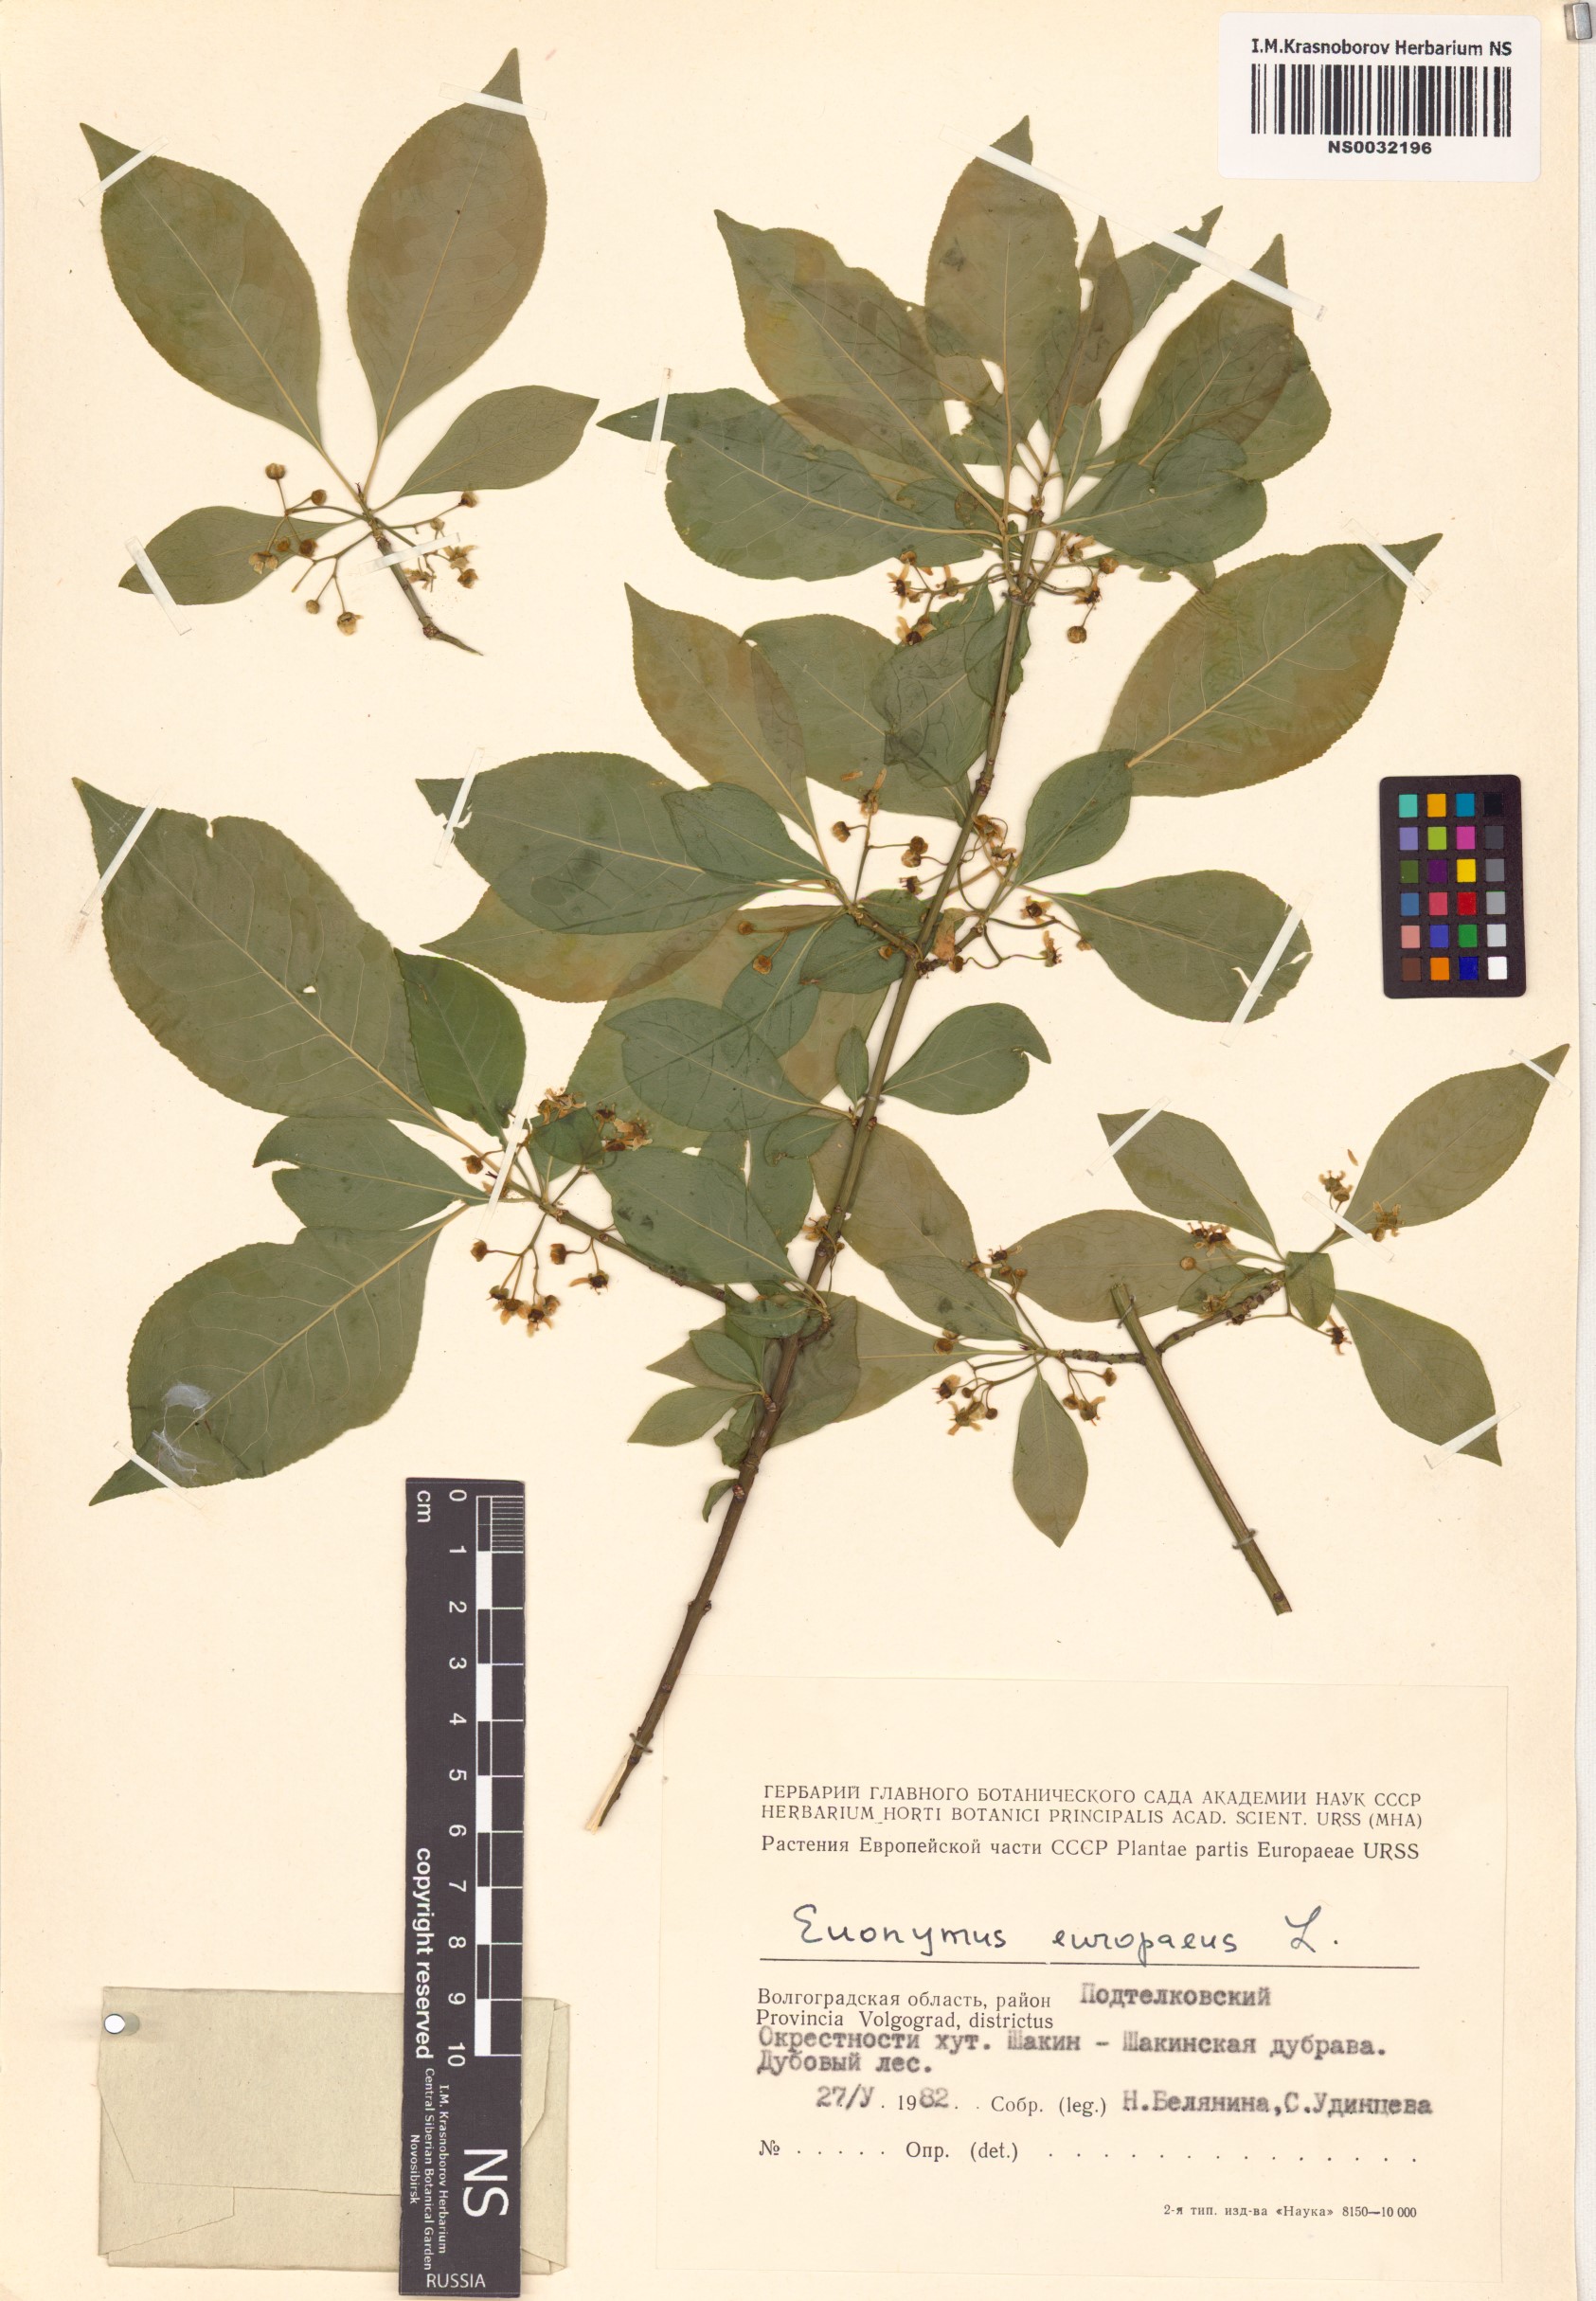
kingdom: Plantae
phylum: Tracheophyta
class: Magnoliopsida
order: Celastrales
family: Celastraceae
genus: Euonymus
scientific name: Euonymus europaeus
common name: Spindle
